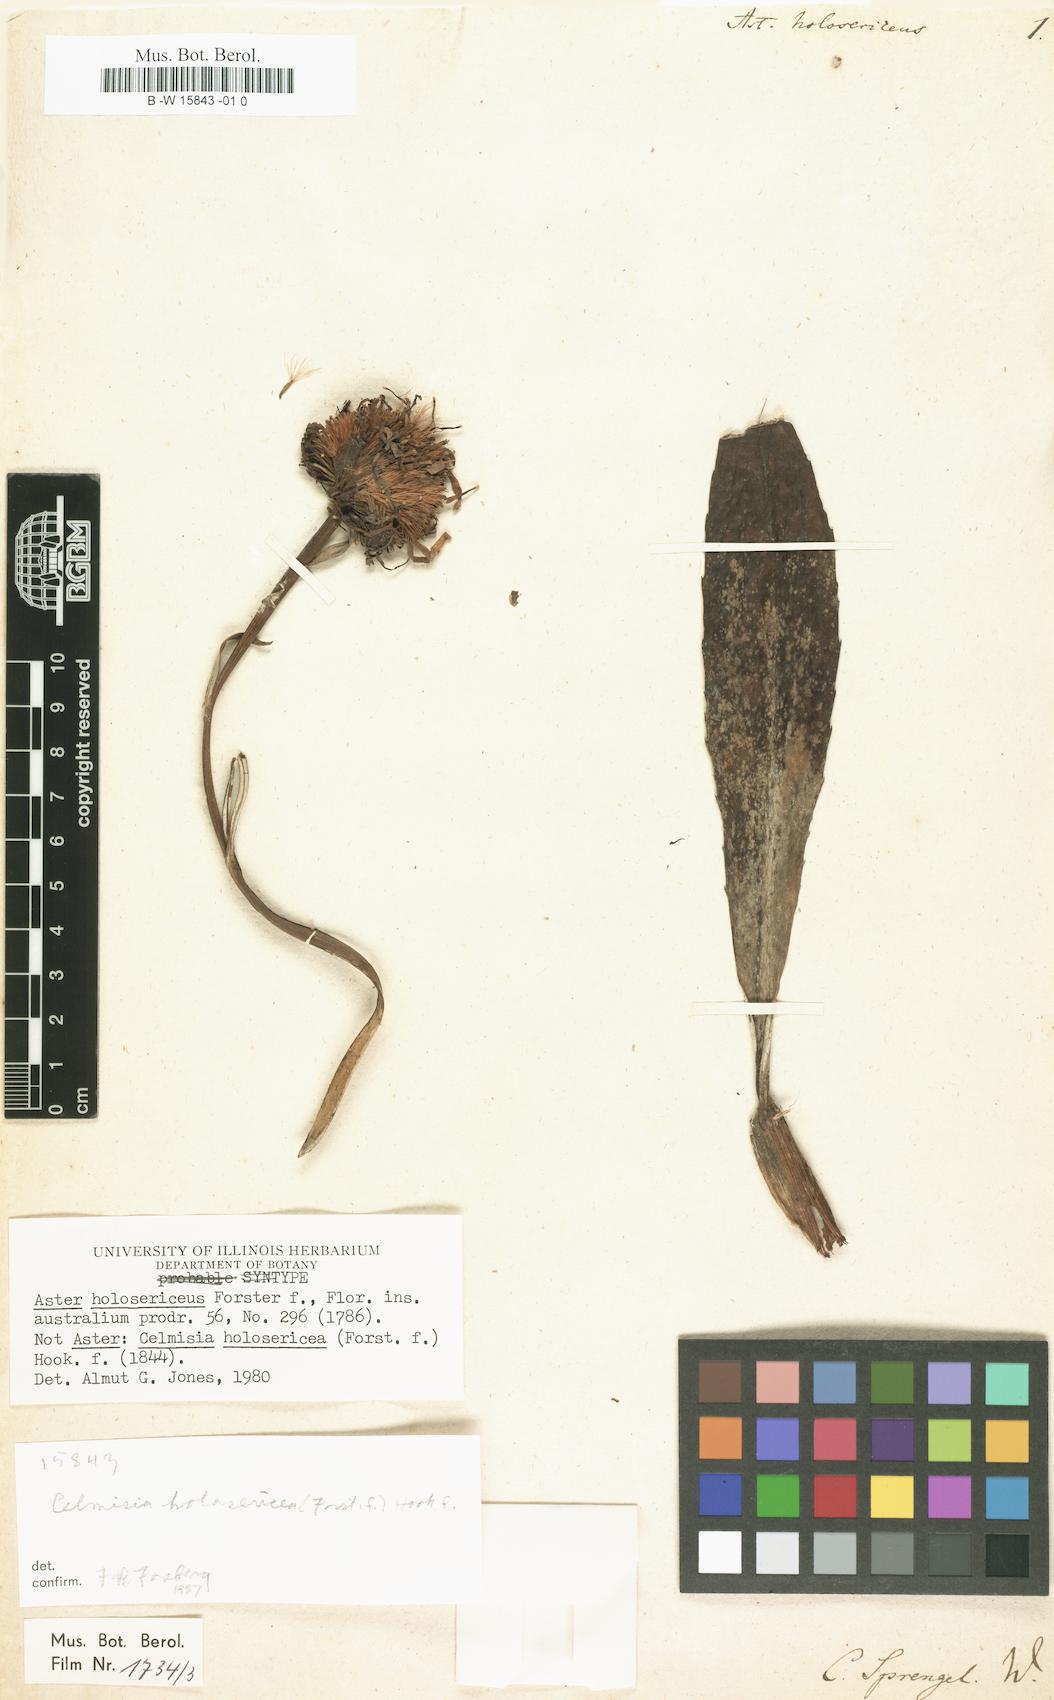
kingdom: Plantae
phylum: Tracheophyta
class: Magnoliopsida
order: Asterales
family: Asteraceae
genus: Celmisia
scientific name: Celmisia holosericea
